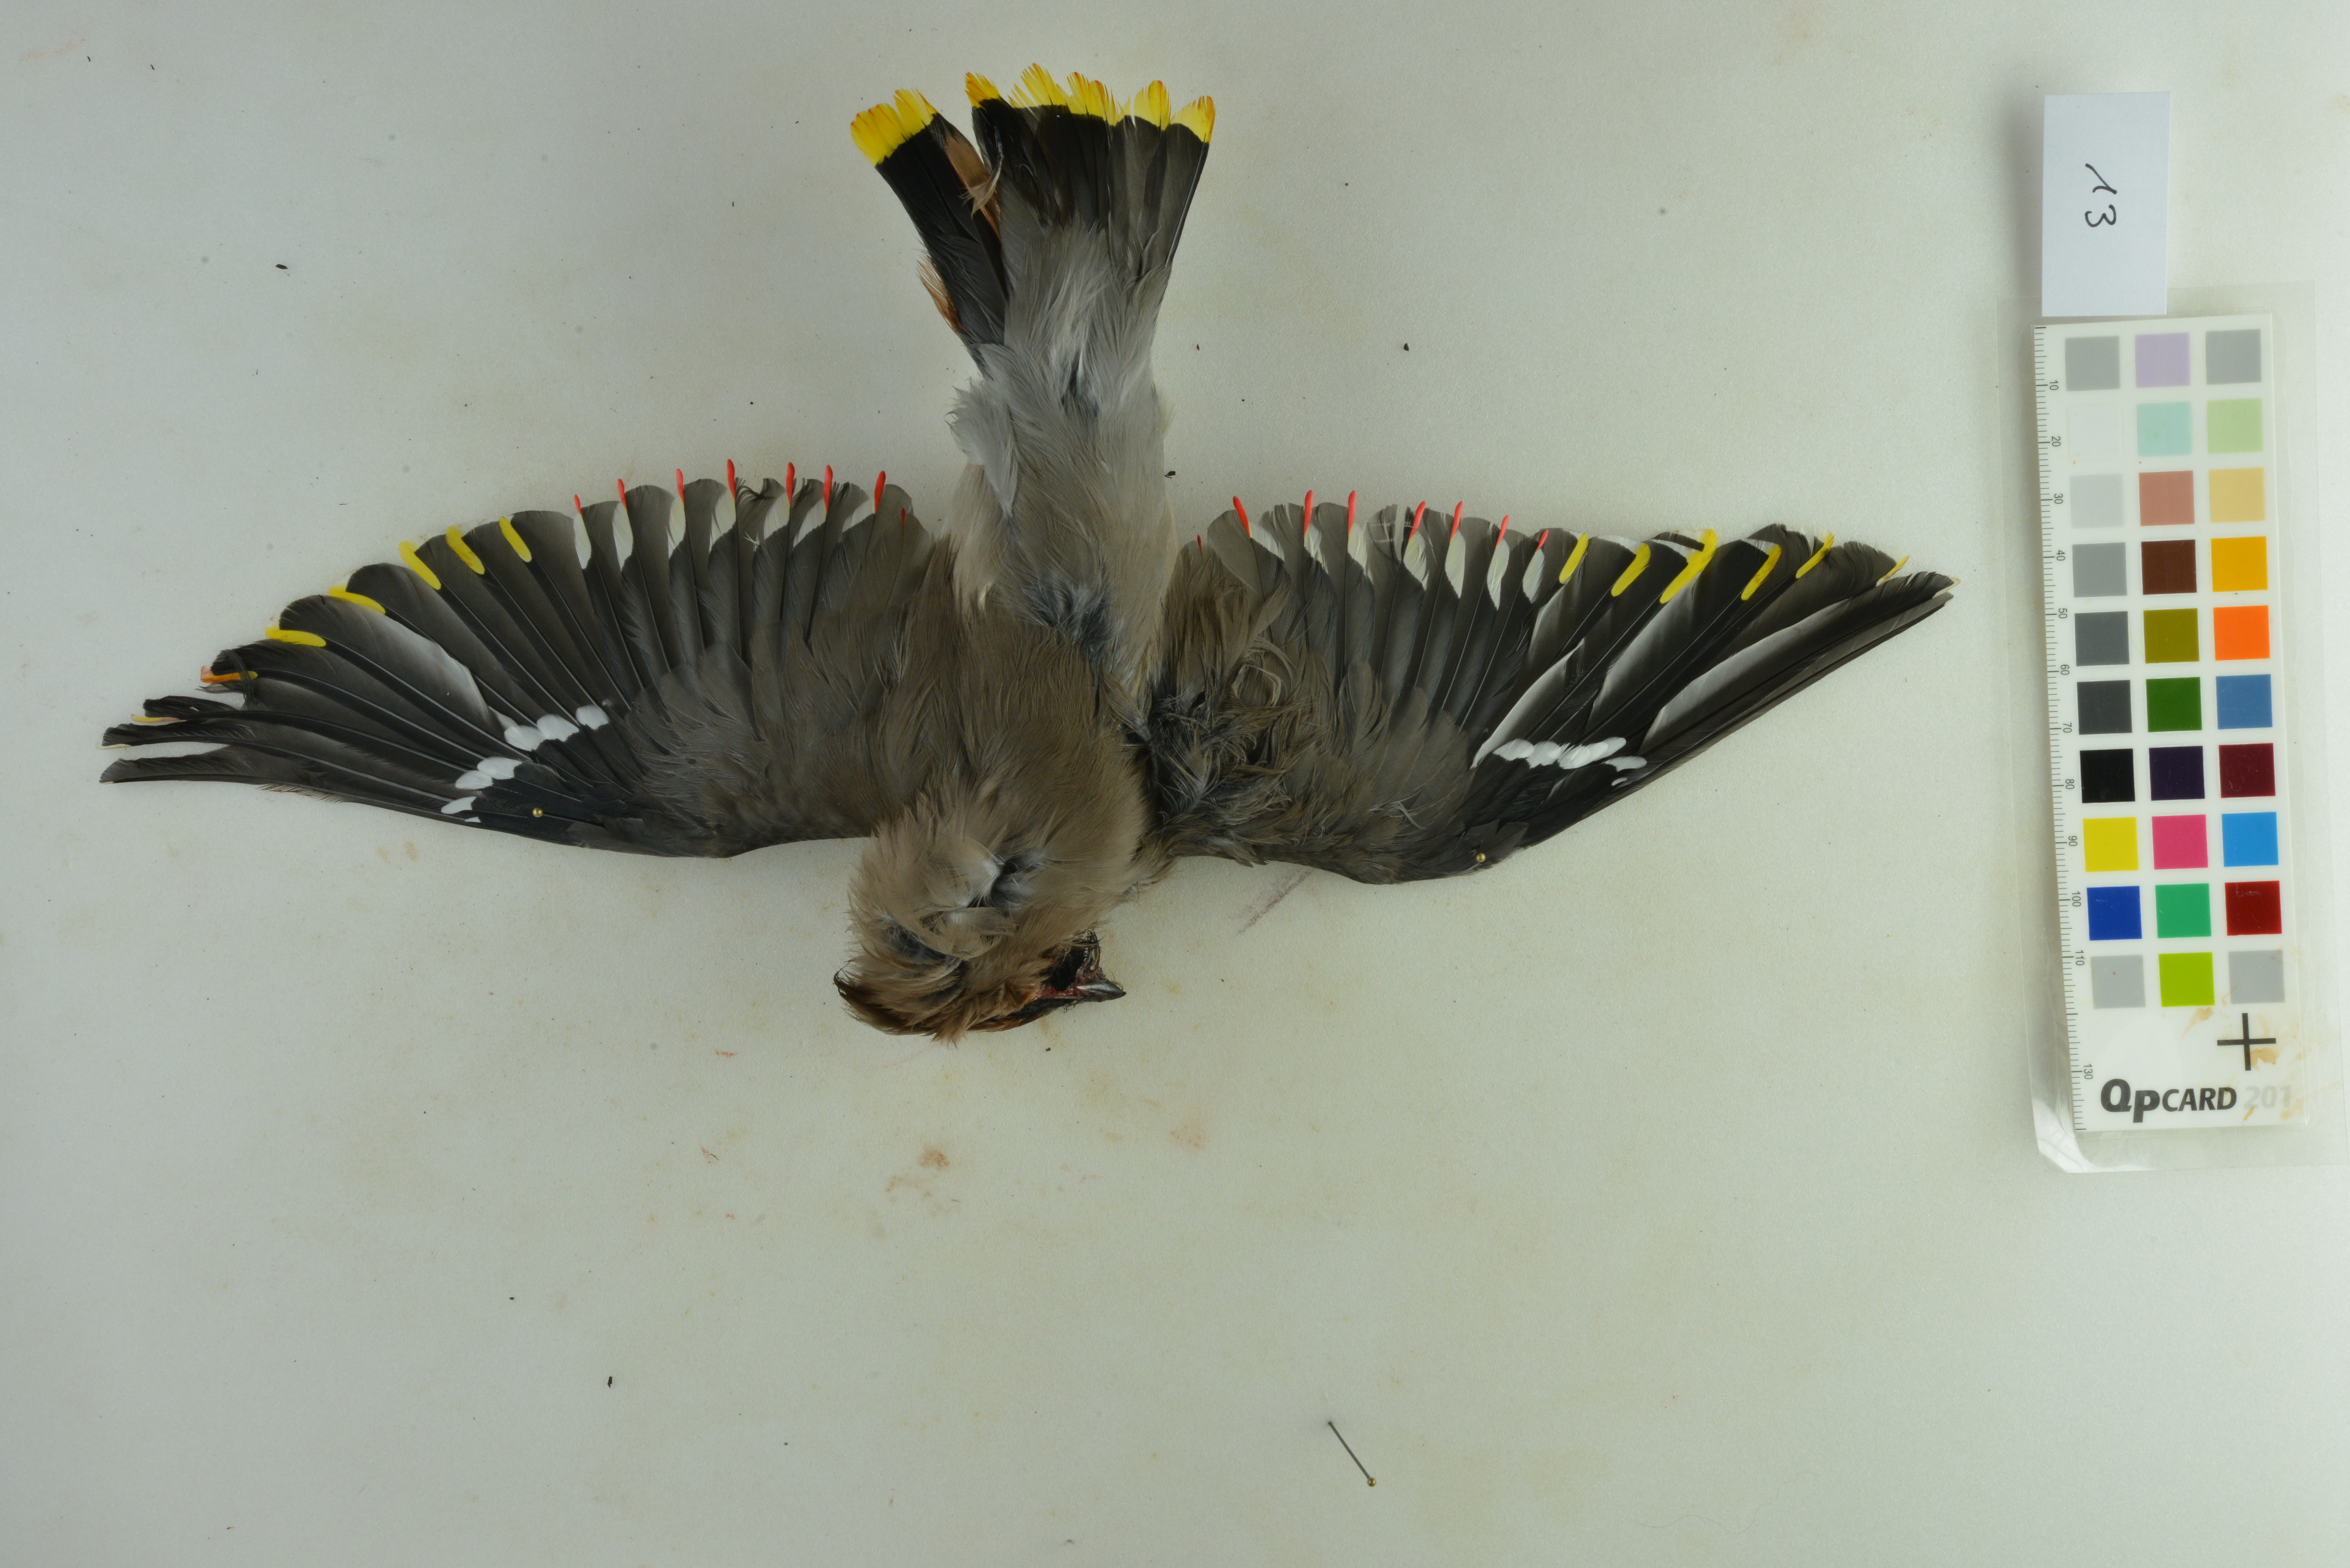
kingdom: Animalia
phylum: Chordata
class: Aves
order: Passeriformes
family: Bombycillidae
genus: Bombycilla
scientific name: Bombycilla garrulus
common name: Bohemian waxwing
